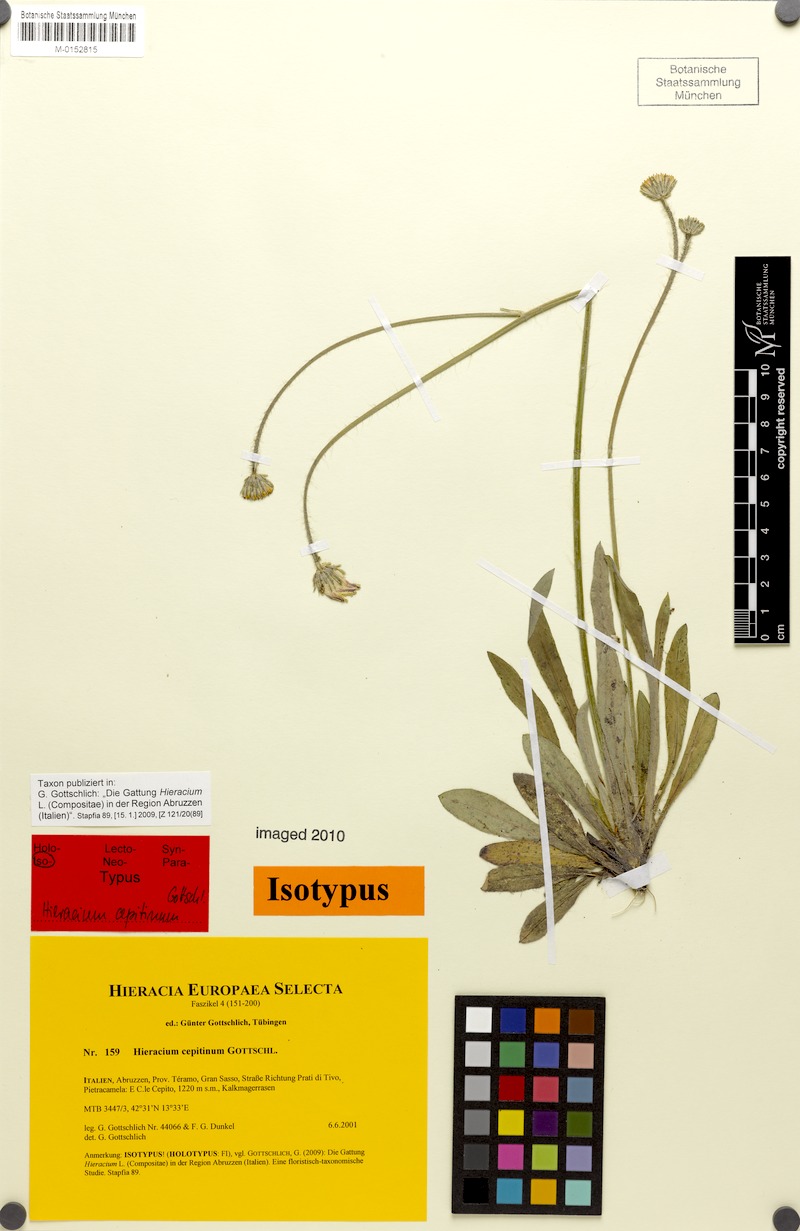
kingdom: Plantae
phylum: Tracheophyta
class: Magnoliopsida
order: Asterales
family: Asteraceae
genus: Pilosella
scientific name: Pilosella cepitina
